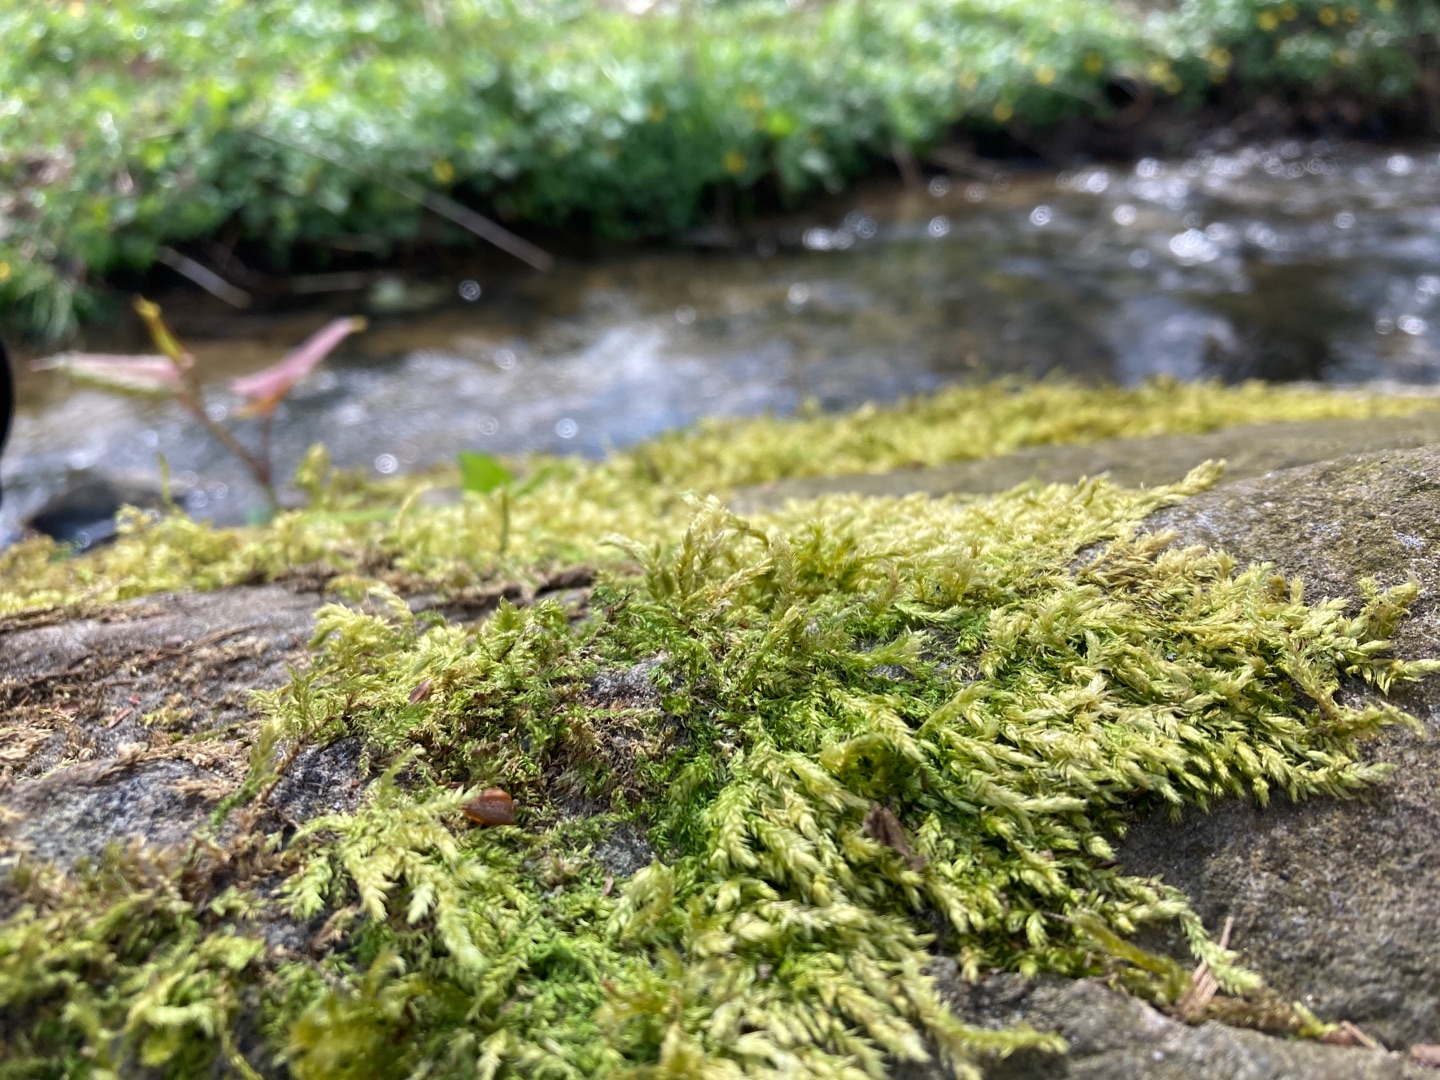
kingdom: Plantae
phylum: Bryophyta
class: Bryopsida
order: Hypnales
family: Brachytheciaceae
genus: Brachythecium
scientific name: Brachythecium rutabulum
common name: Almindelig kortkapsel
